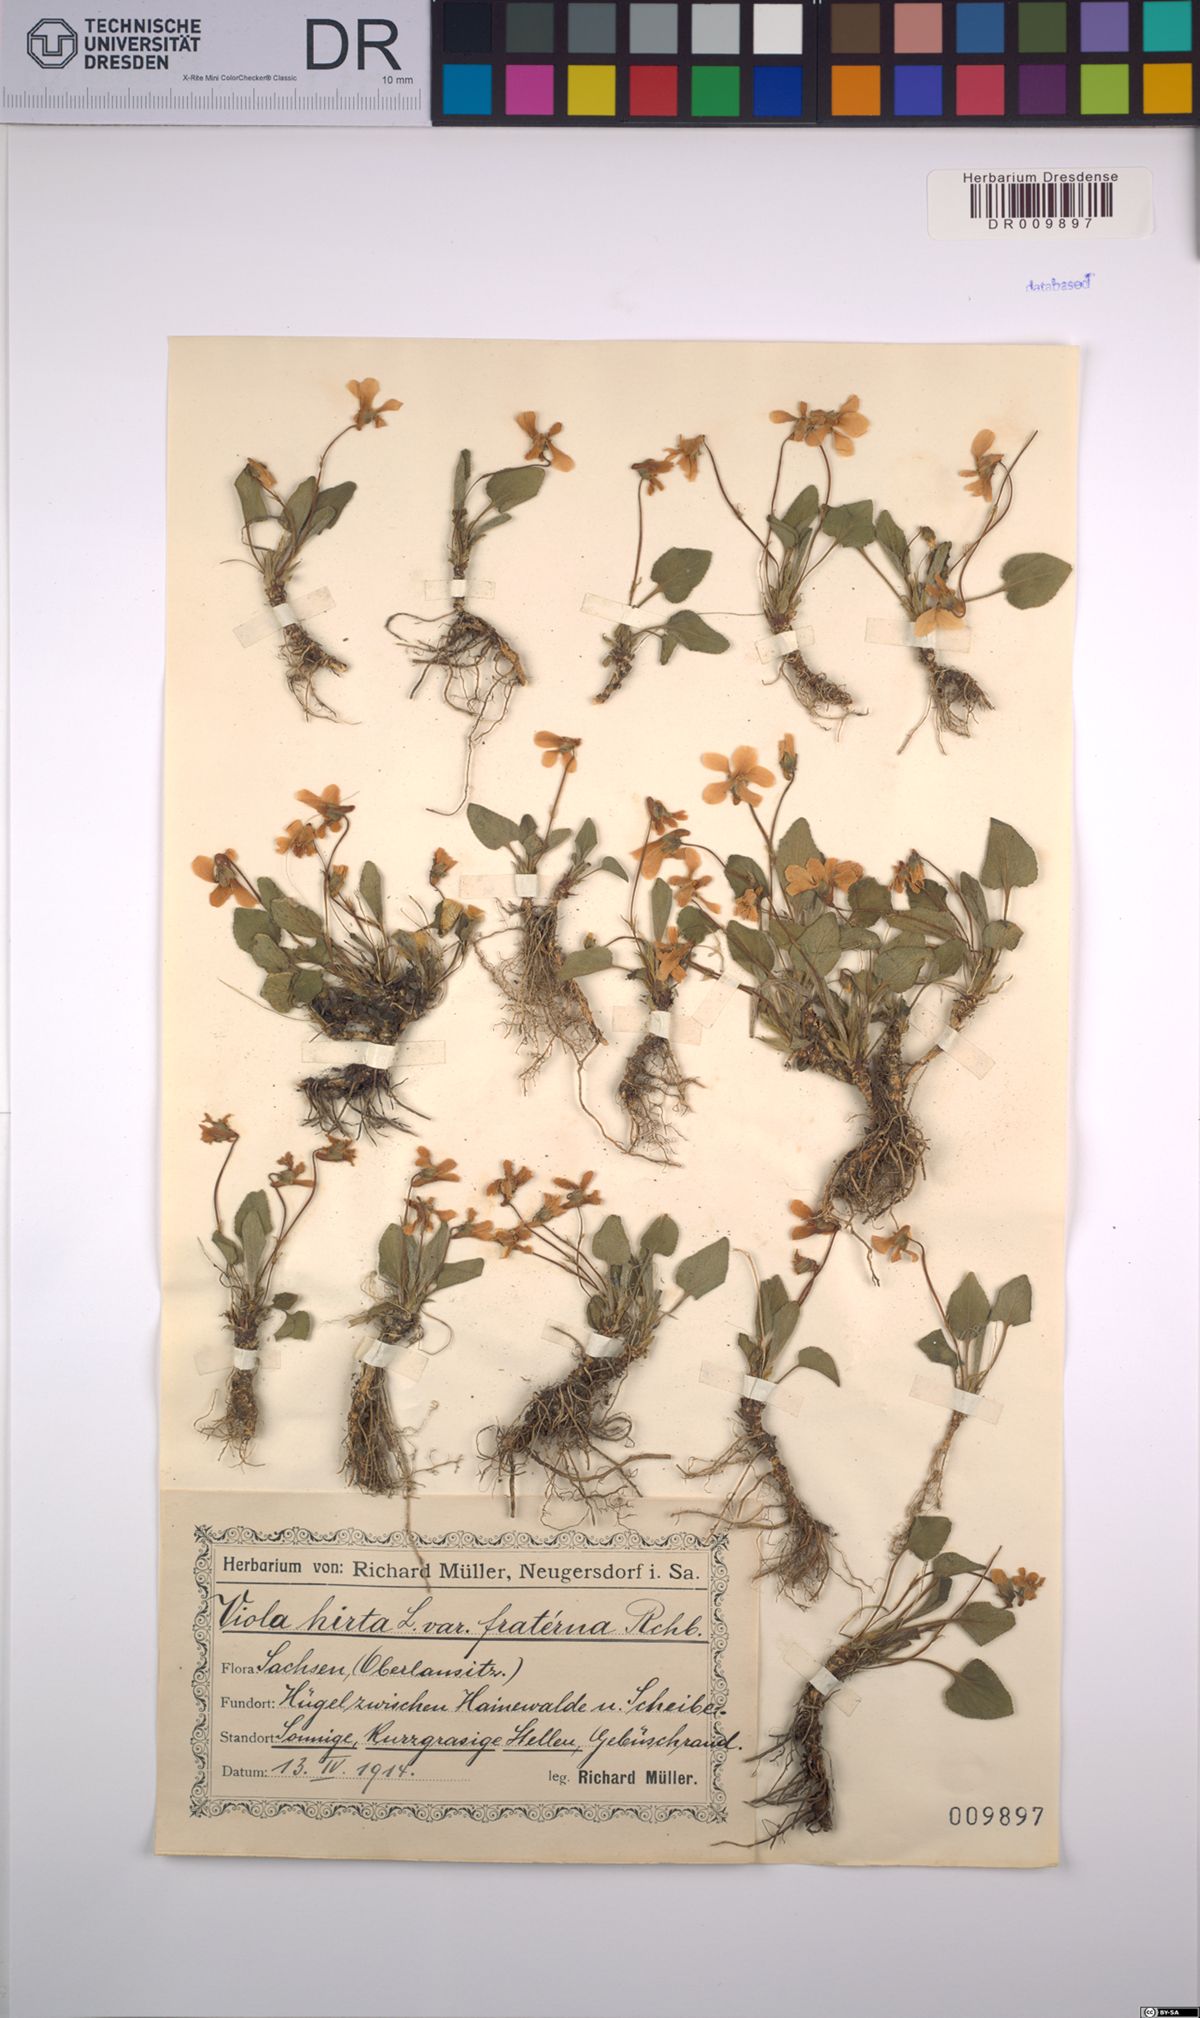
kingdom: Plantae
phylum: Tracheophyta
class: Magnoliopsida
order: Malpighiales
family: Violaceae
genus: Viola
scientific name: Viola hirta
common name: Hairy violet
